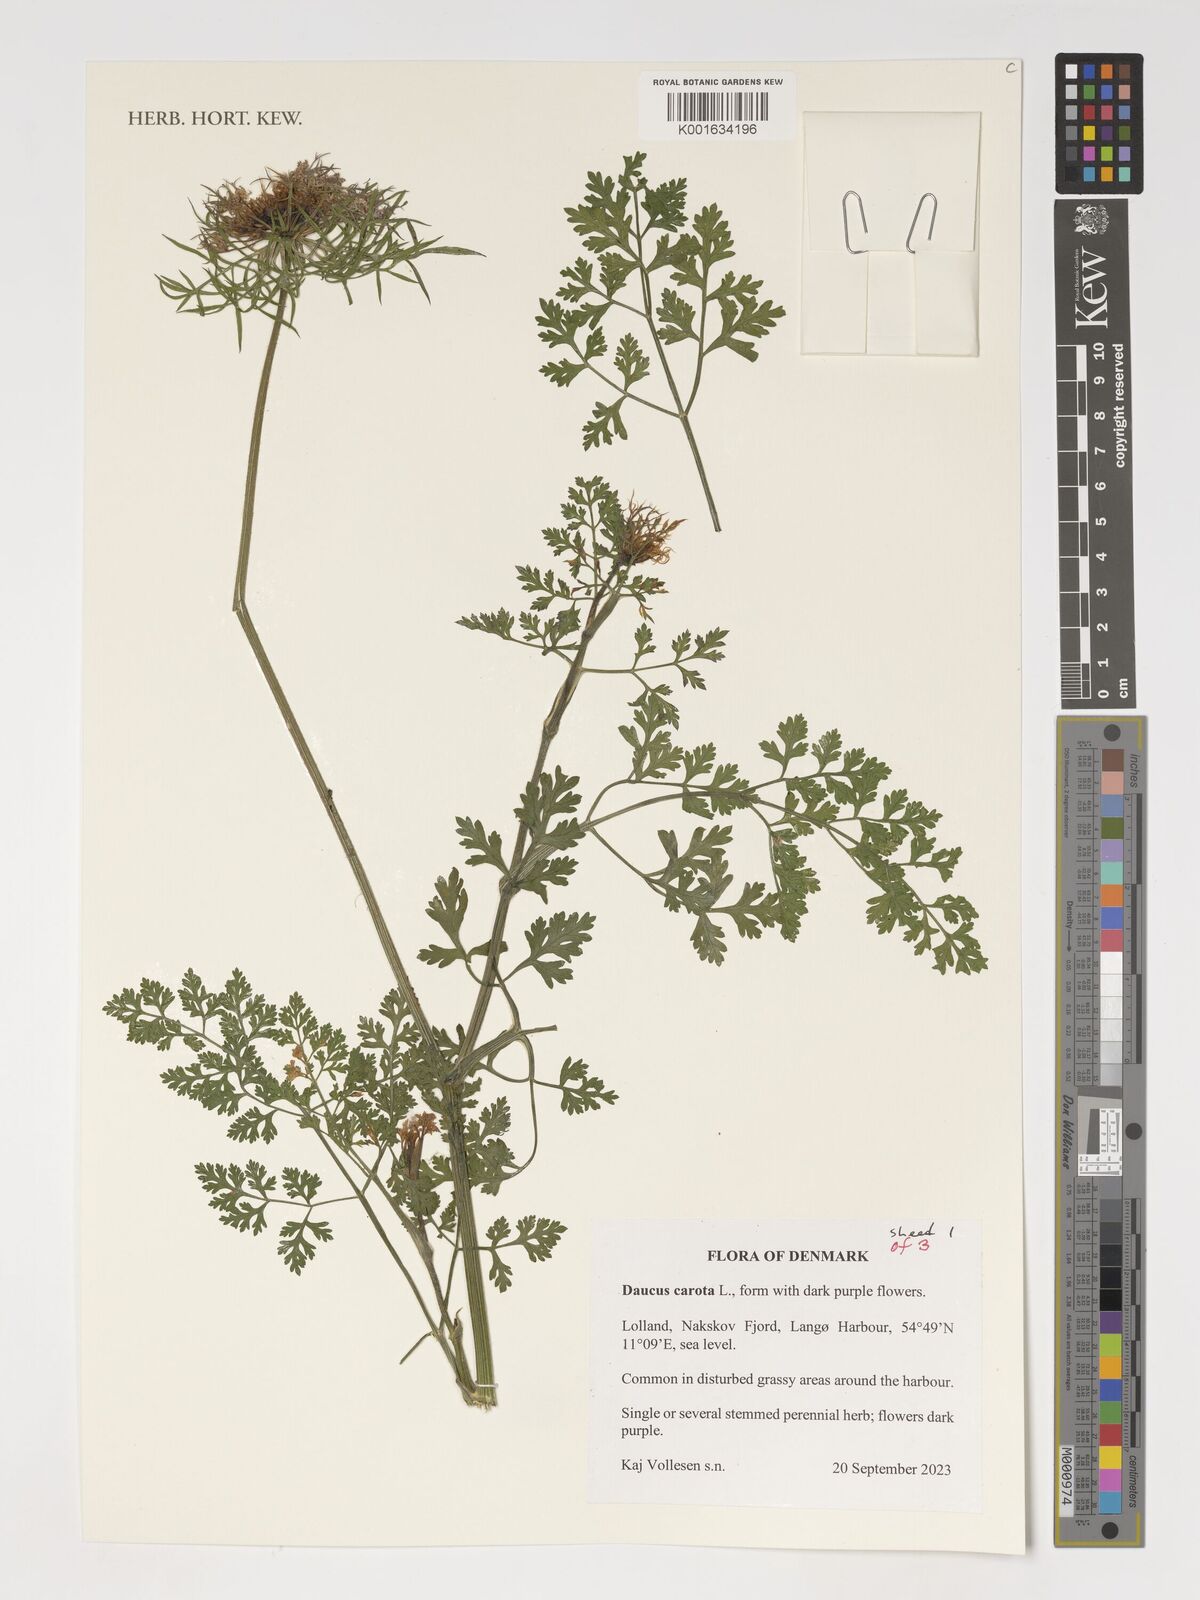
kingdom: Plantae
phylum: Tracheophyta
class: Magnoliopsida
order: Apiales
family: Apiaceae
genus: Daucus
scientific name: Daucus carota
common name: Wild carrot
